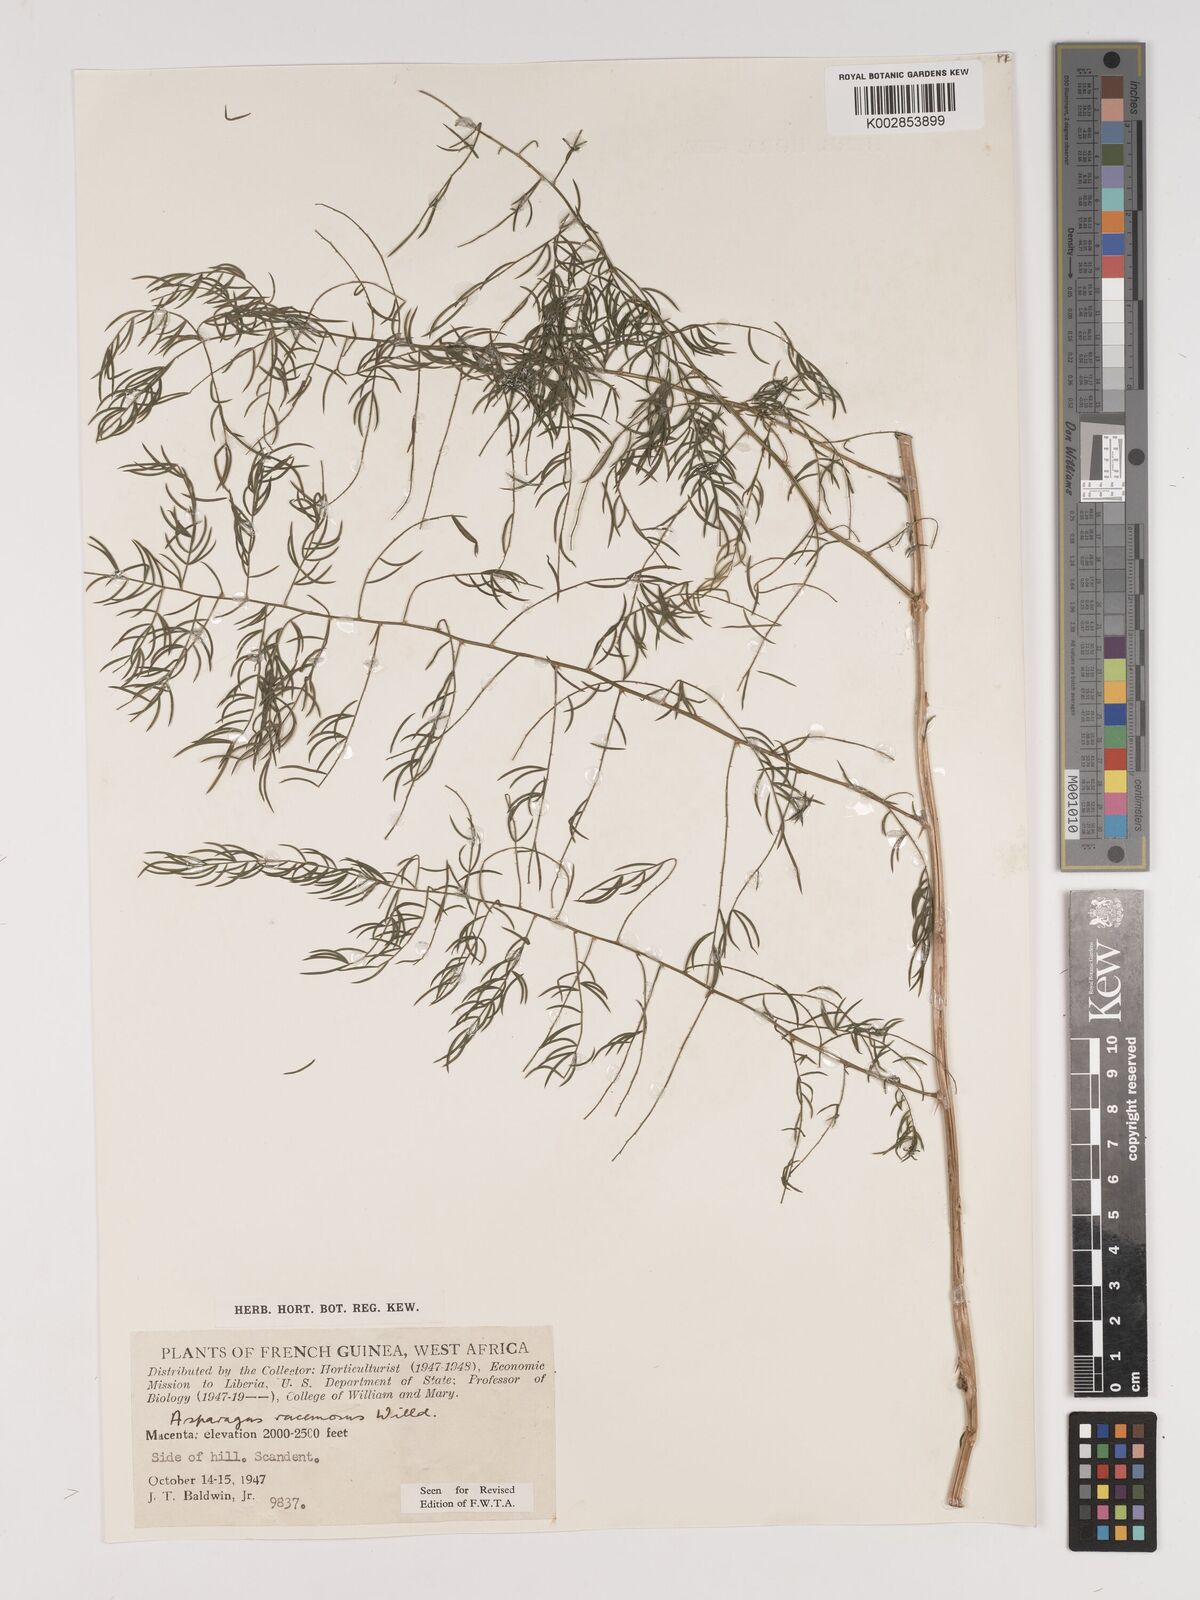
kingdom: Plantae
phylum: Tracheophyta
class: Liliopsida
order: Asparagales
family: Asparagaceae
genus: Asparagus
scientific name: Asparagus racemosus
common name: Asparagus-fern
